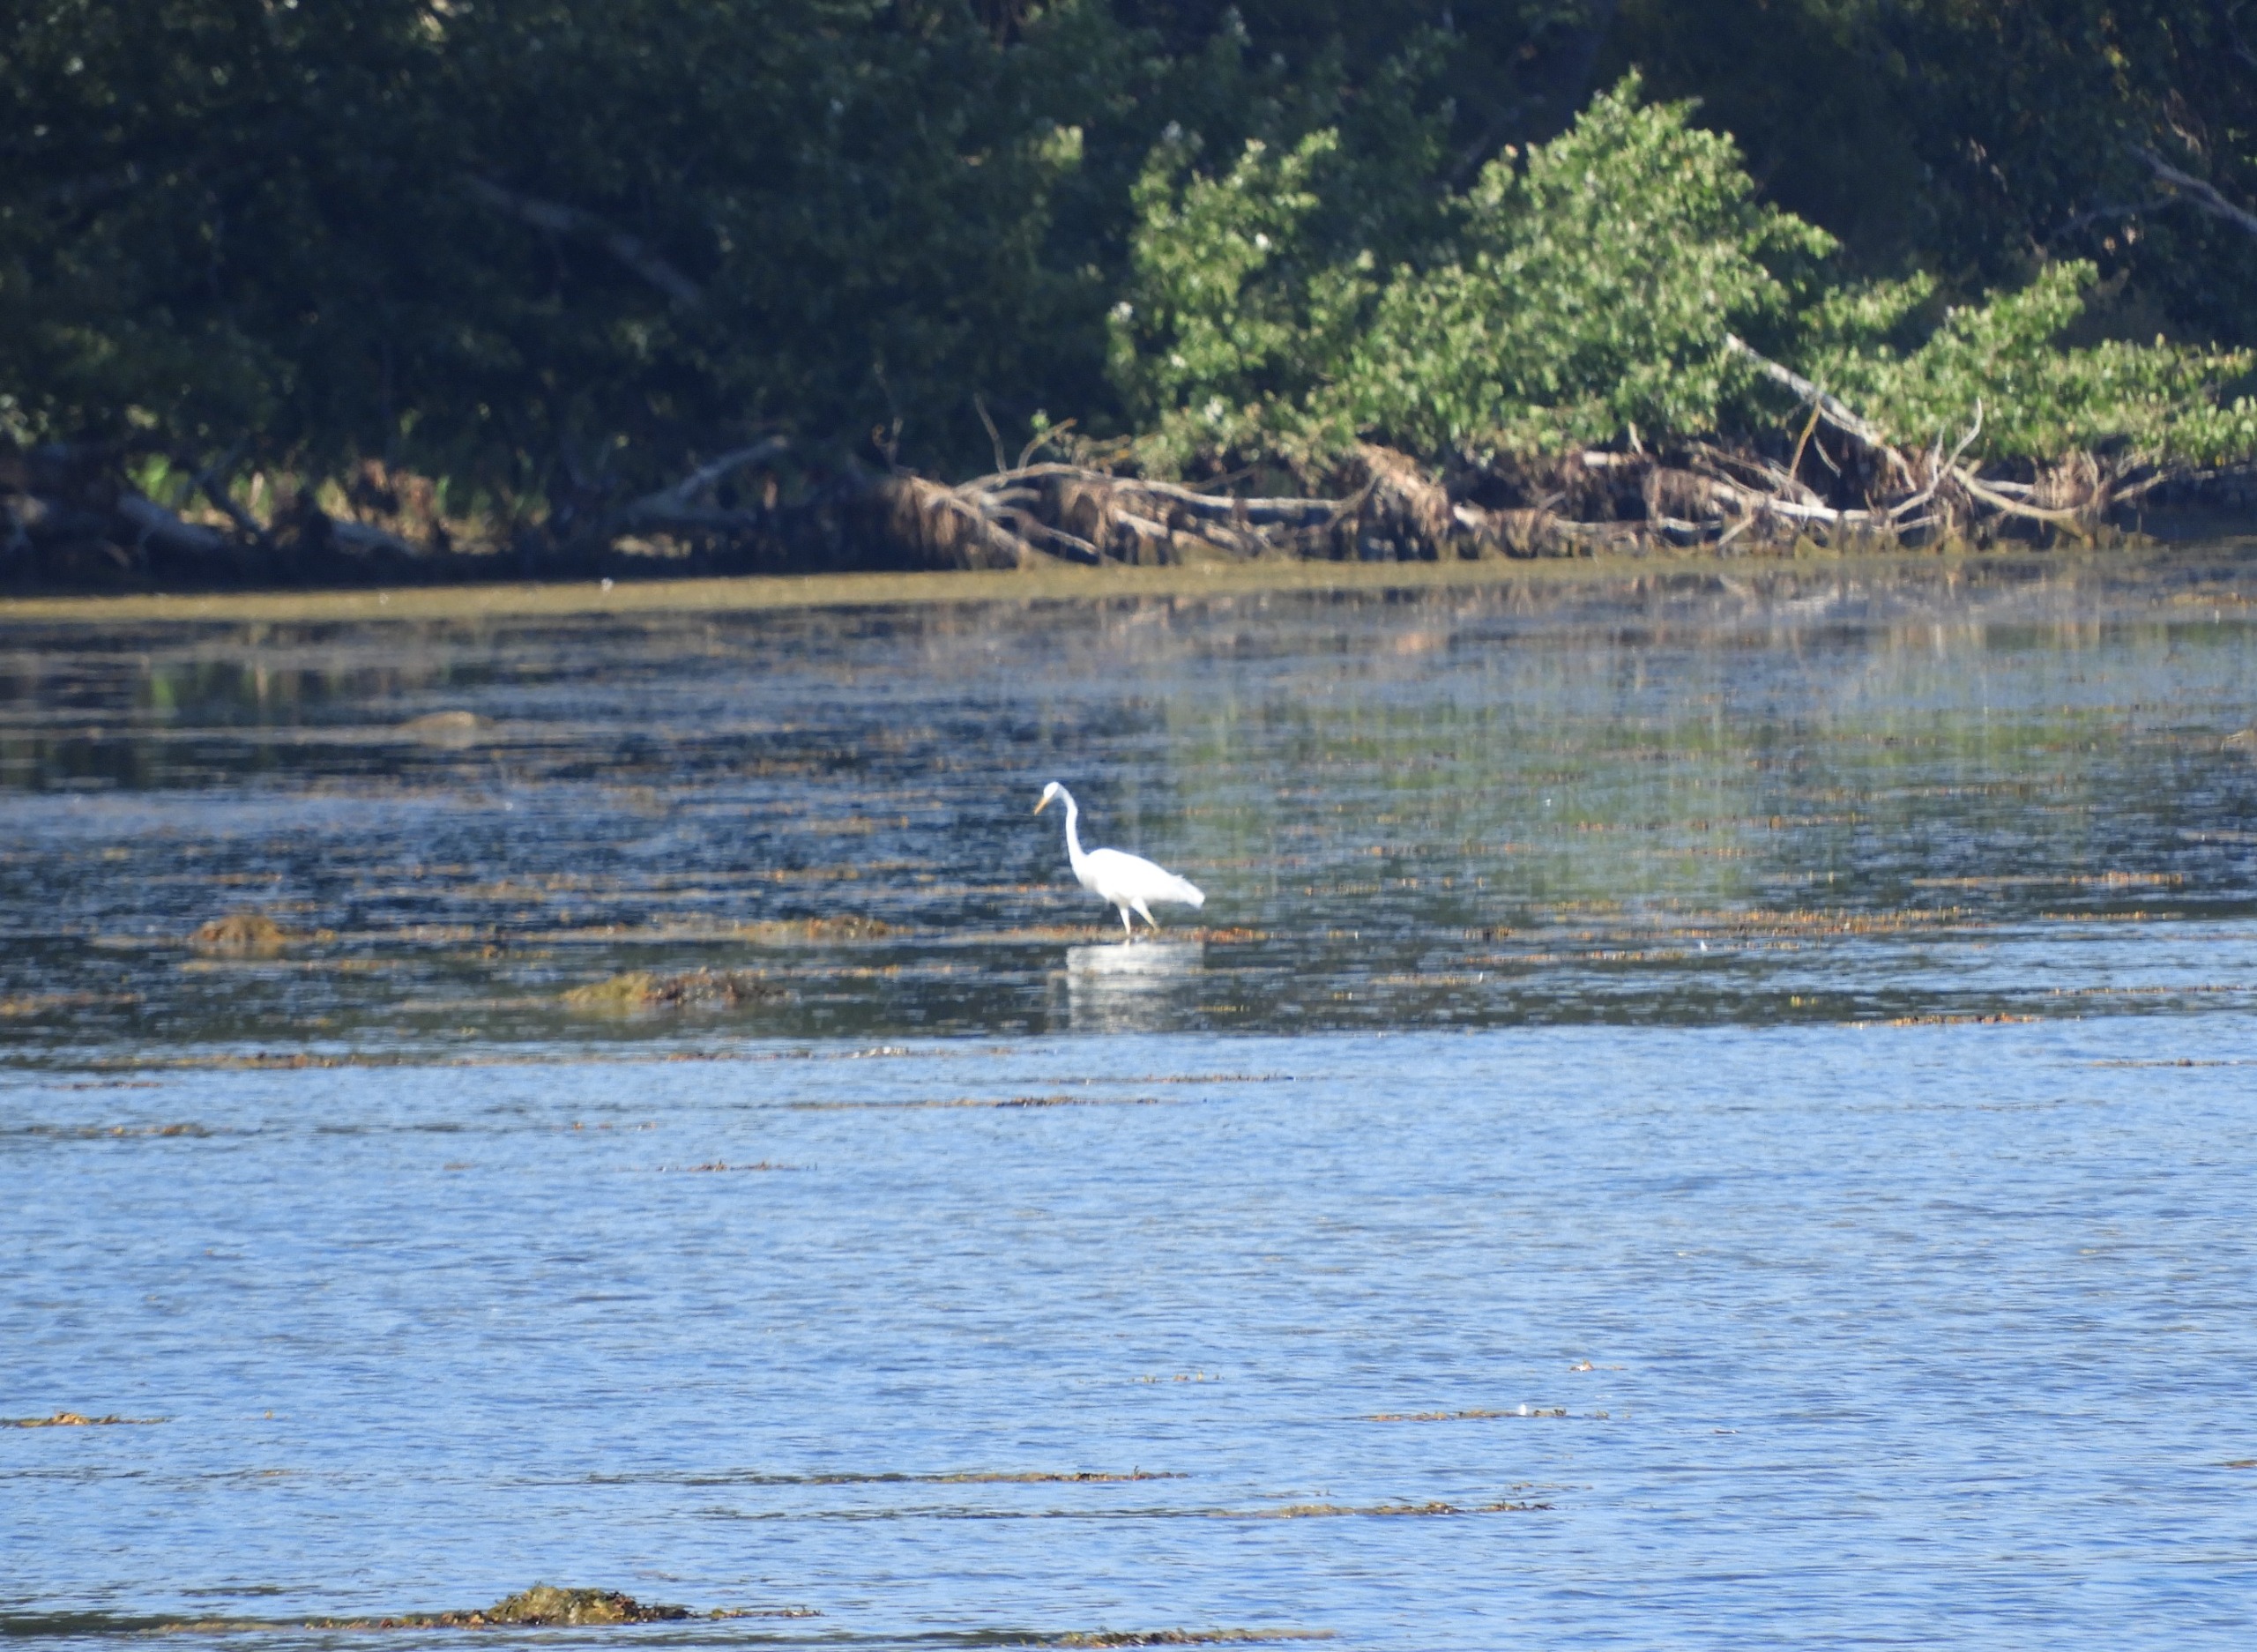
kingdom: Animalia
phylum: Chordata
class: Aves
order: Pelecaniformes
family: Ardeidae
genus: Ardea
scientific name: Ardea alba
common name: Sølvhejre
